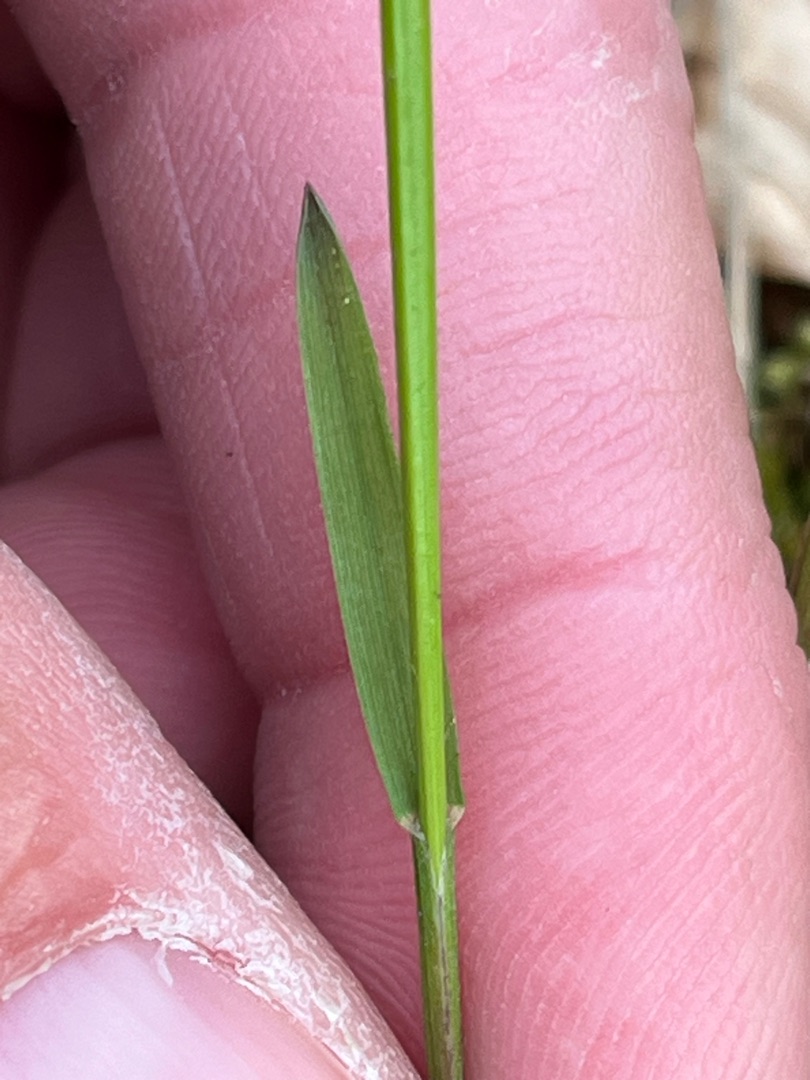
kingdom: Plantae
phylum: Tracheophyta
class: Liliopsida
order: Poales
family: Poaceae
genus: Melica
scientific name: Melica nutans
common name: Nikkende flitteraks
